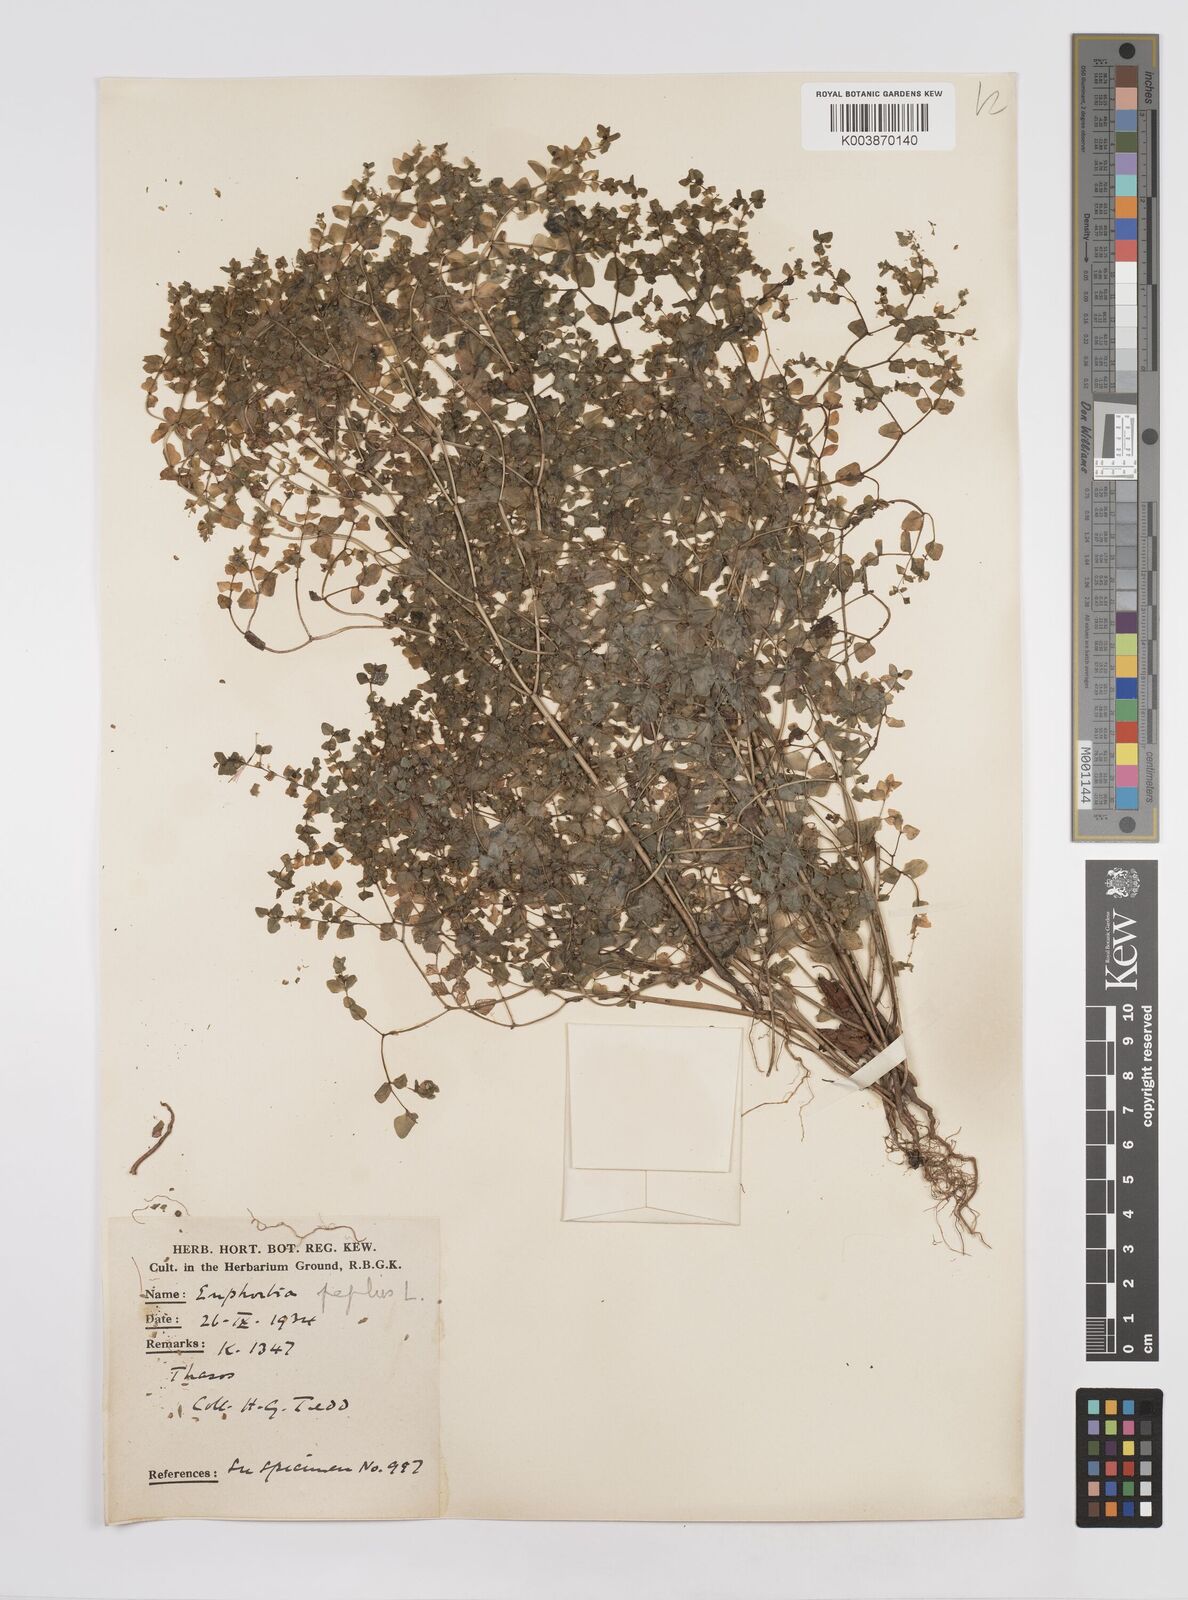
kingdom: Plantae
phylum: Tracheophyta
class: Magnoliopsida
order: Malpighiales
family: Euphorbiaceae
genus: Euphorbia
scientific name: Euphorbia peplus
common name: Petty spurge
